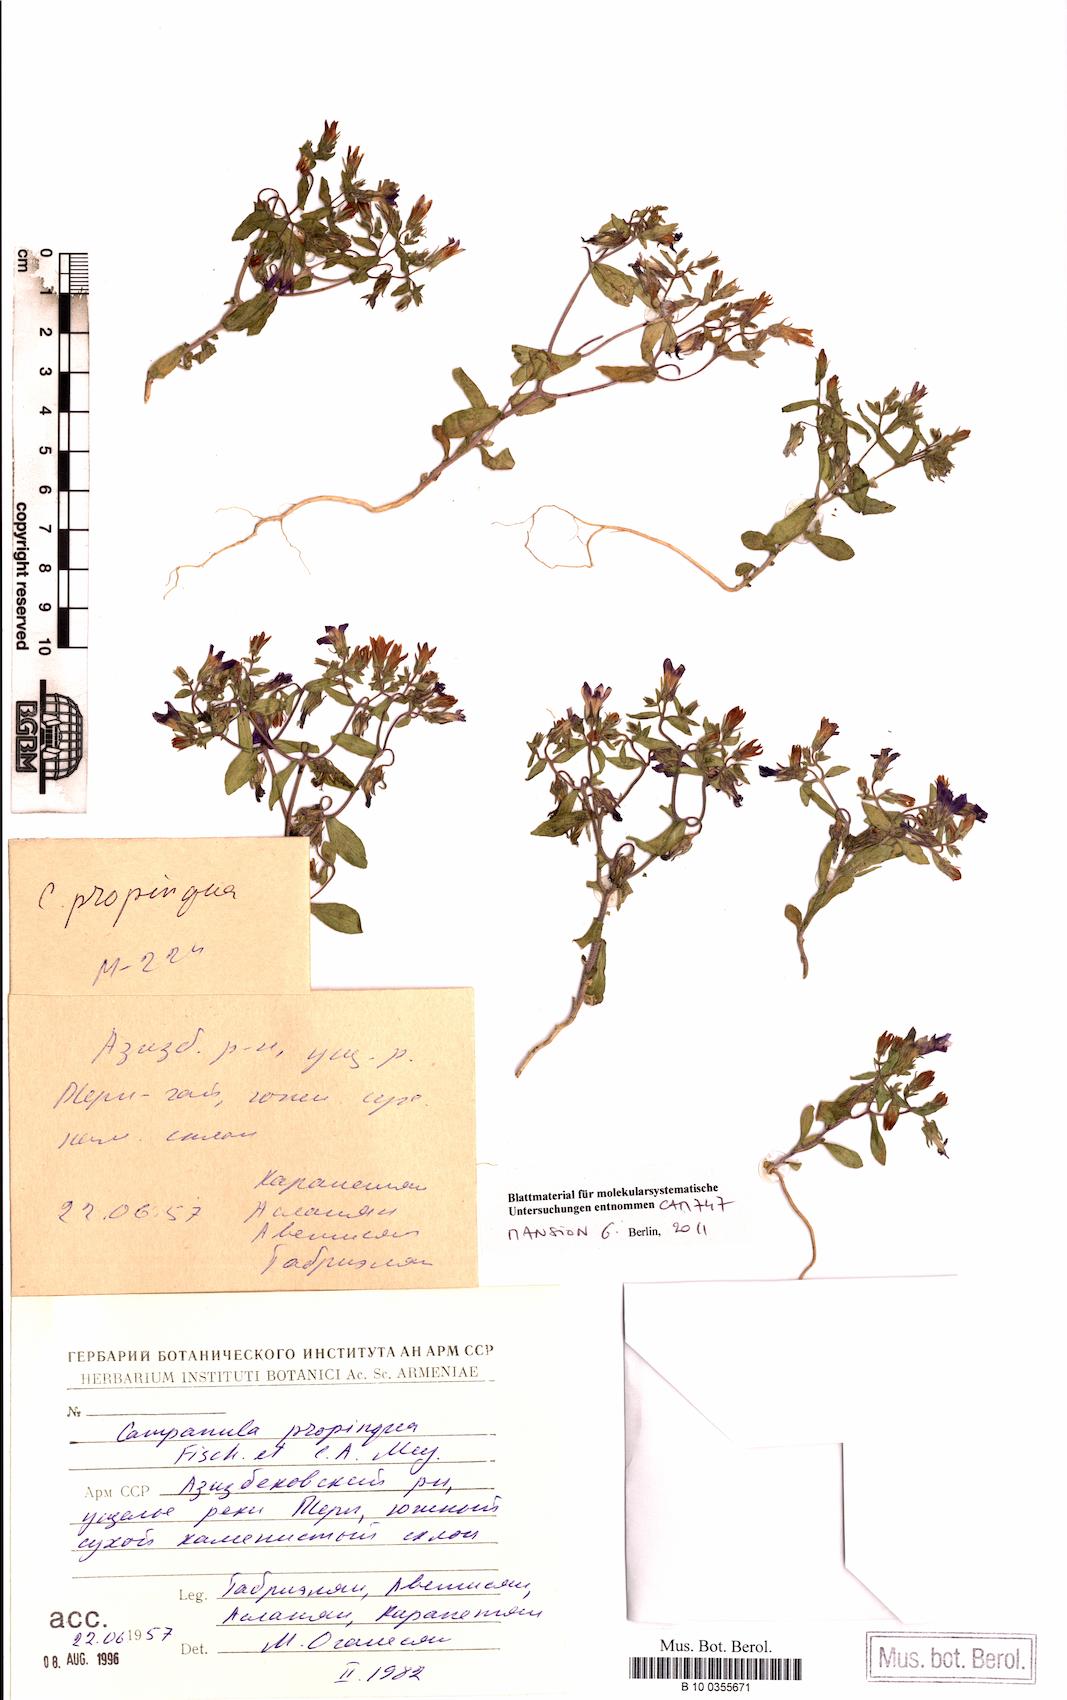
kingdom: Plantae
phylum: Tracheophyta
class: Magnoliopsida
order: Asterales
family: Campanulaceae
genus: Campanula
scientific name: Campanula propinqua
